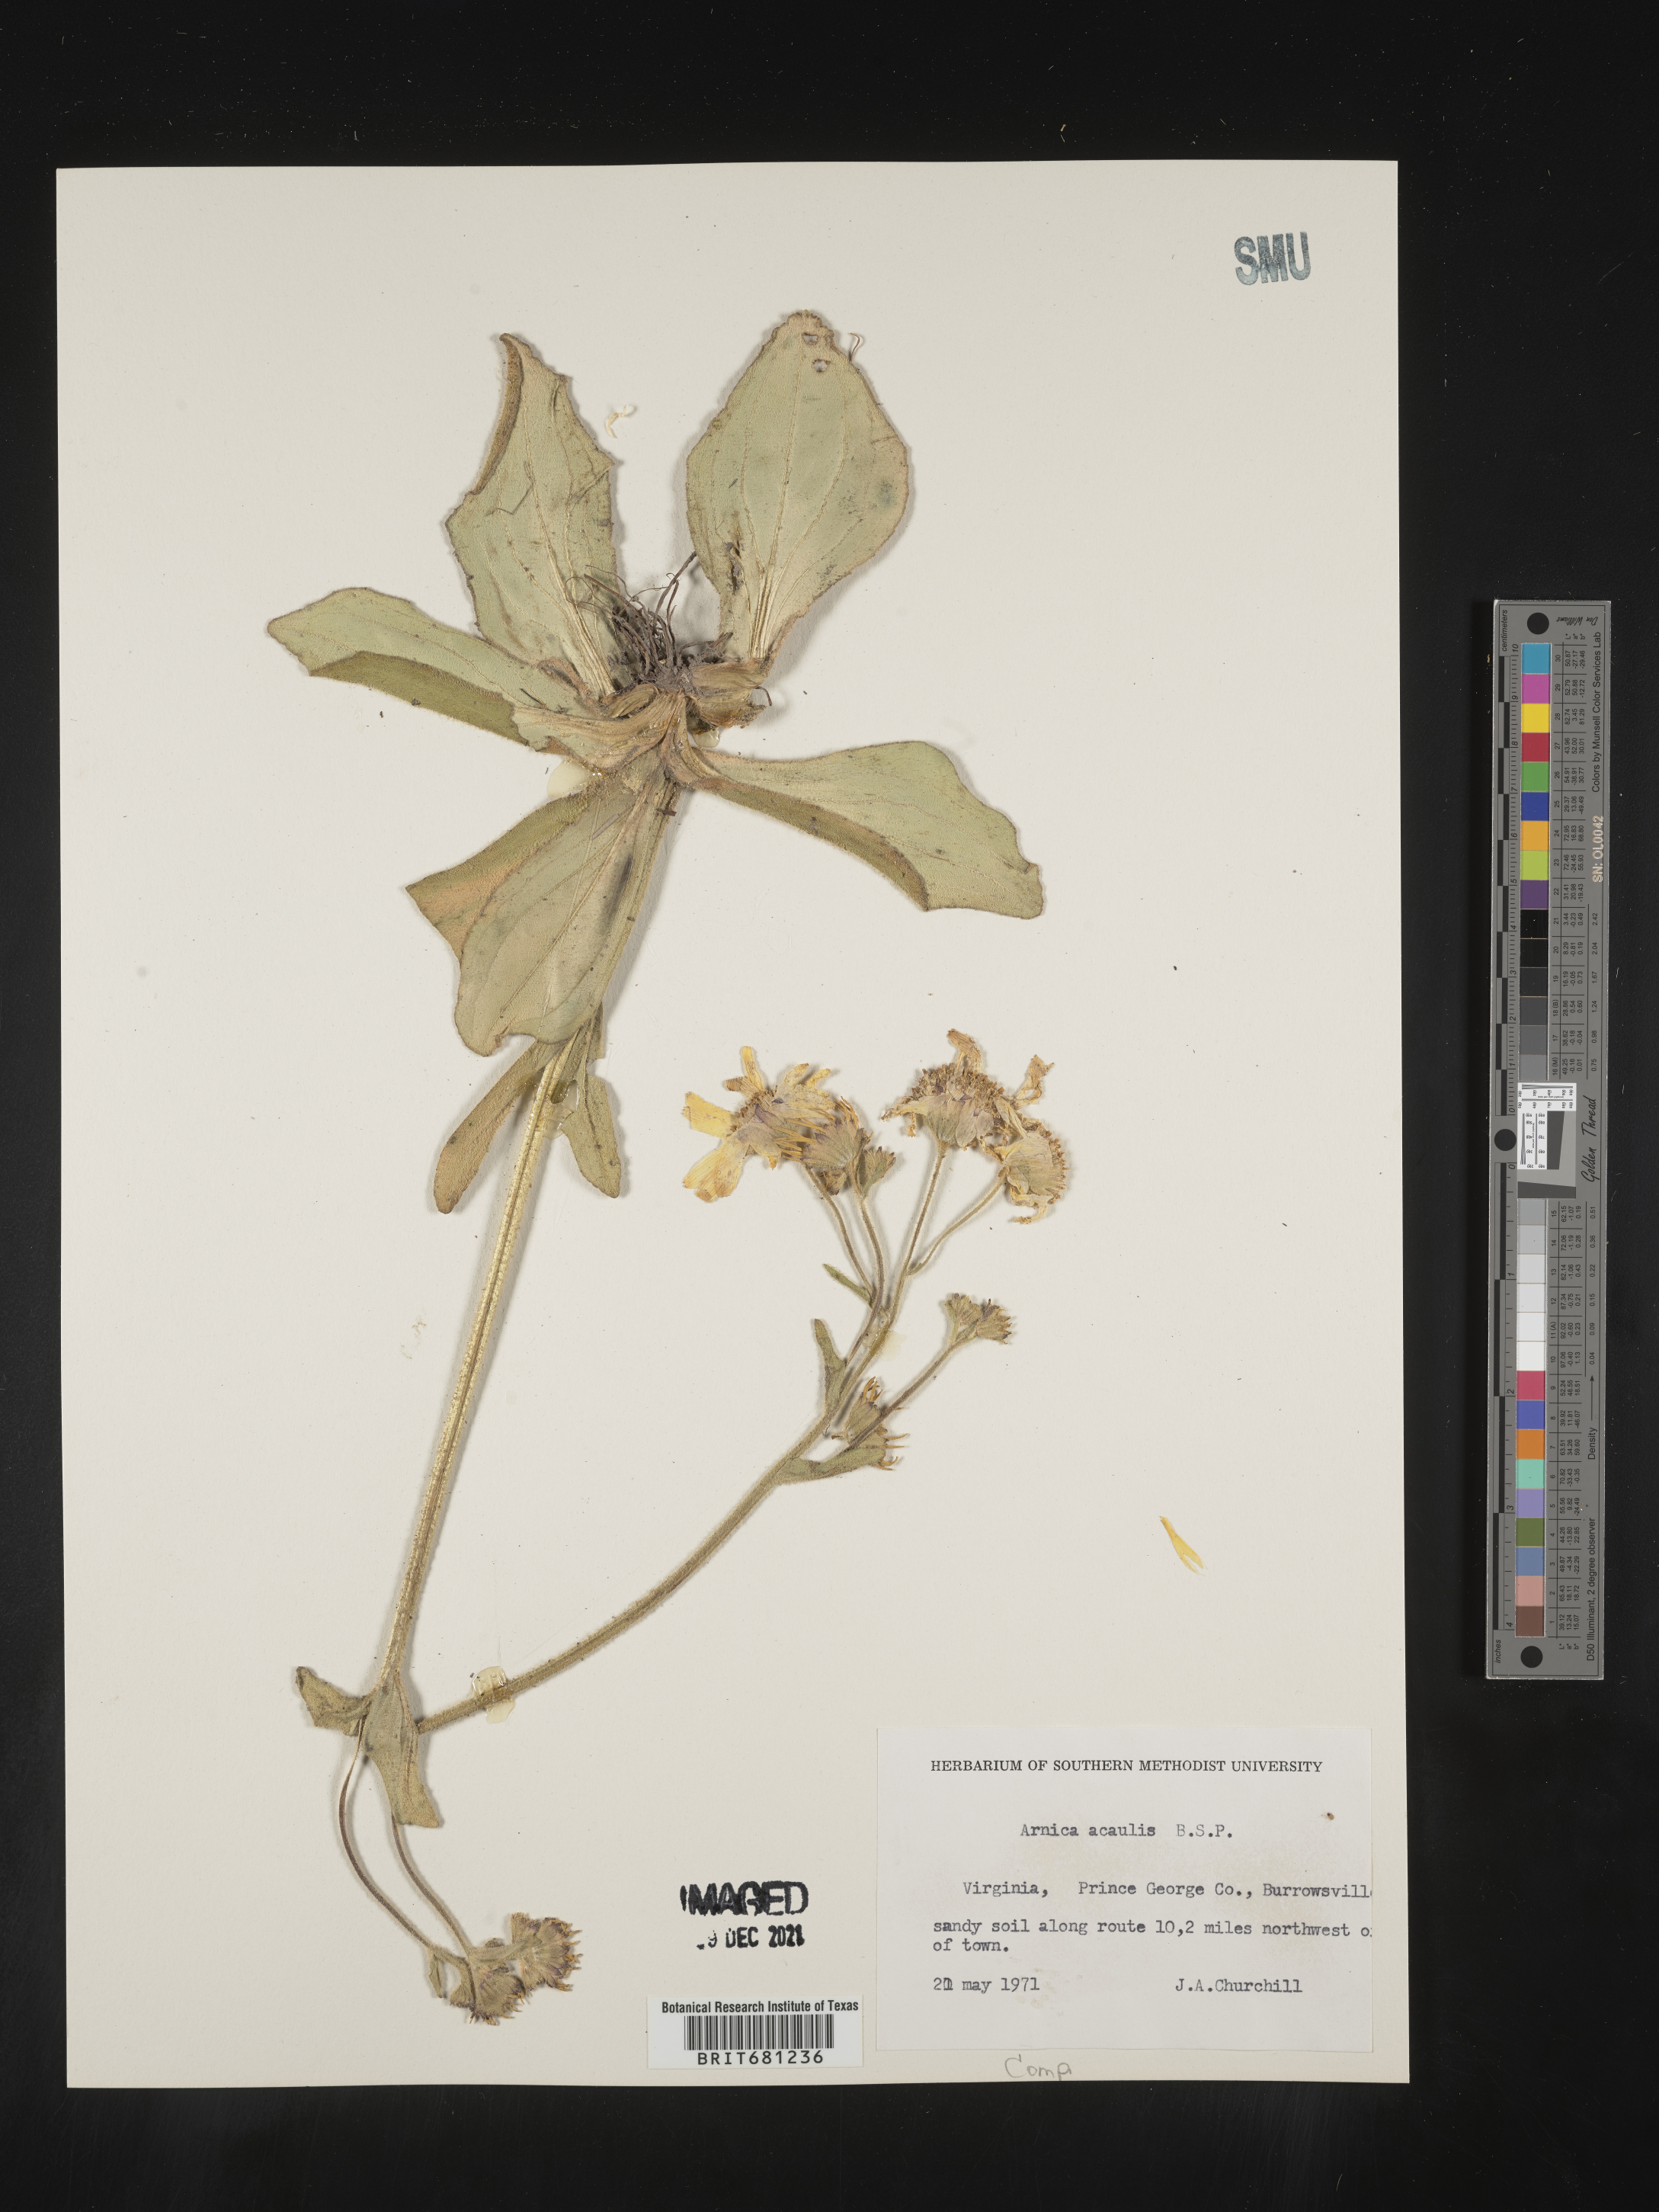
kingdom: Plantae
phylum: Tracheophyta
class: Magnoliopsida
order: Asterales
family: Asteraceae
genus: Arnica
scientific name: Arnica acaulis
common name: Common leopardbane
